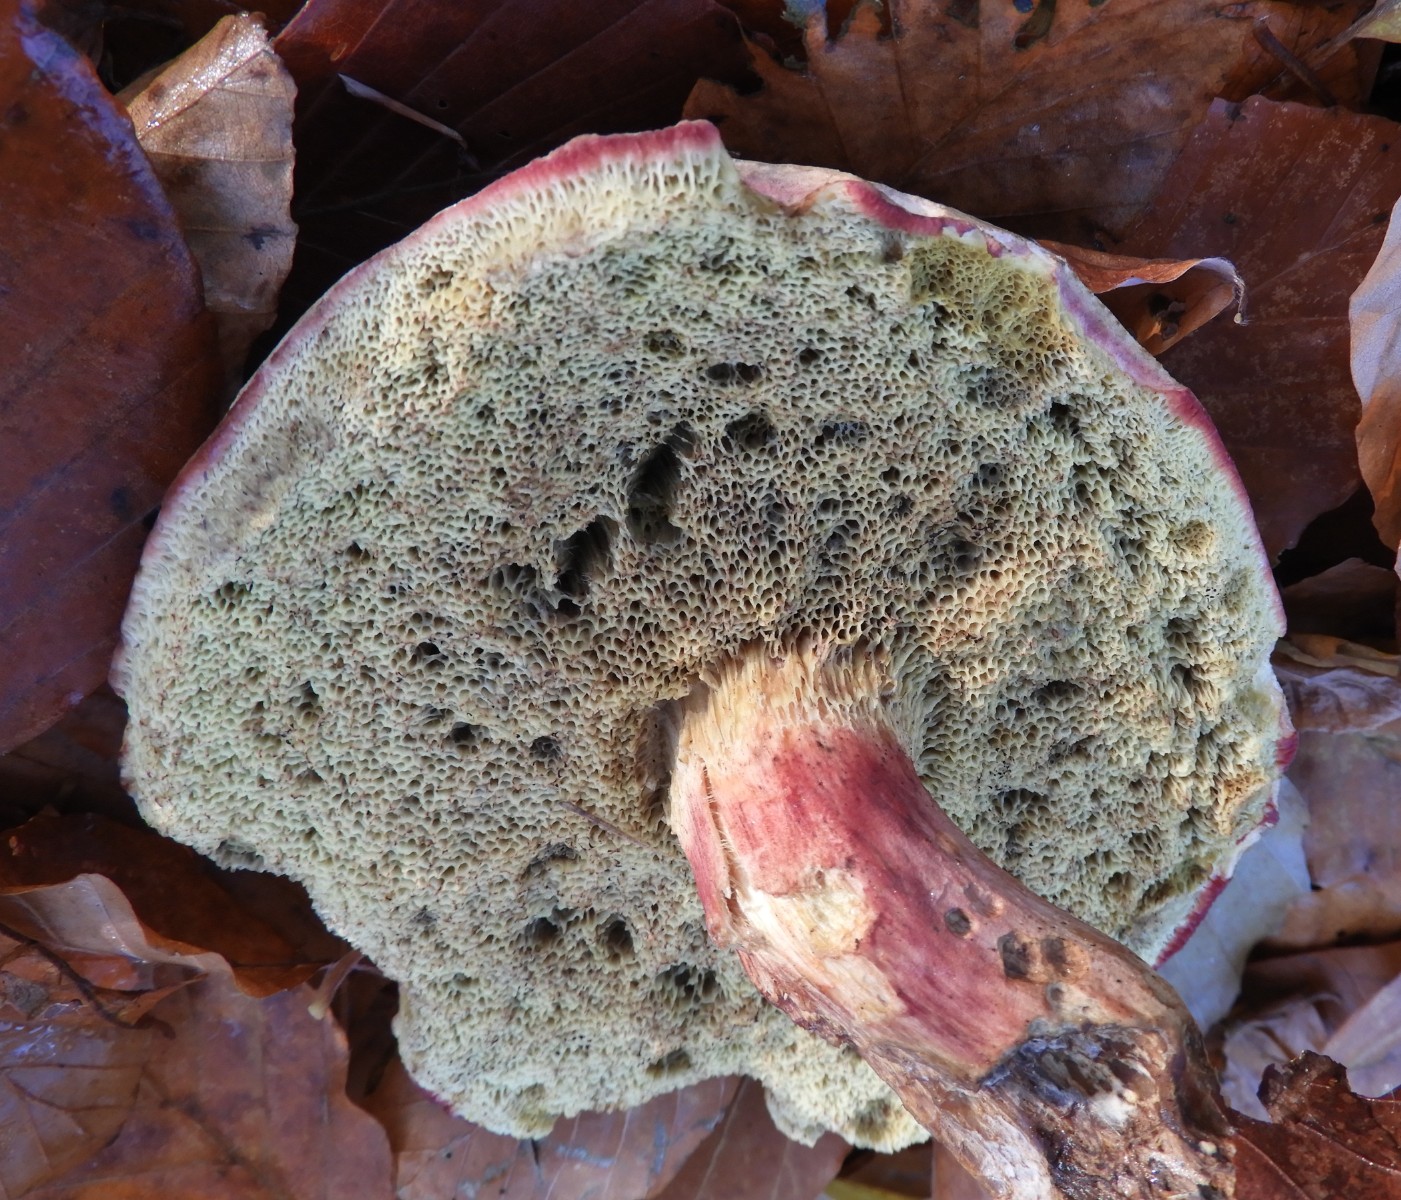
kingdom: Fungi
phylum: Basidiomycota
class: Agaricomycetes
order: Boletales
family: Boletaceae
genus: Xerocomellus
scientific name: Xerocomellus pruinatus
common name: dugget rørhat
